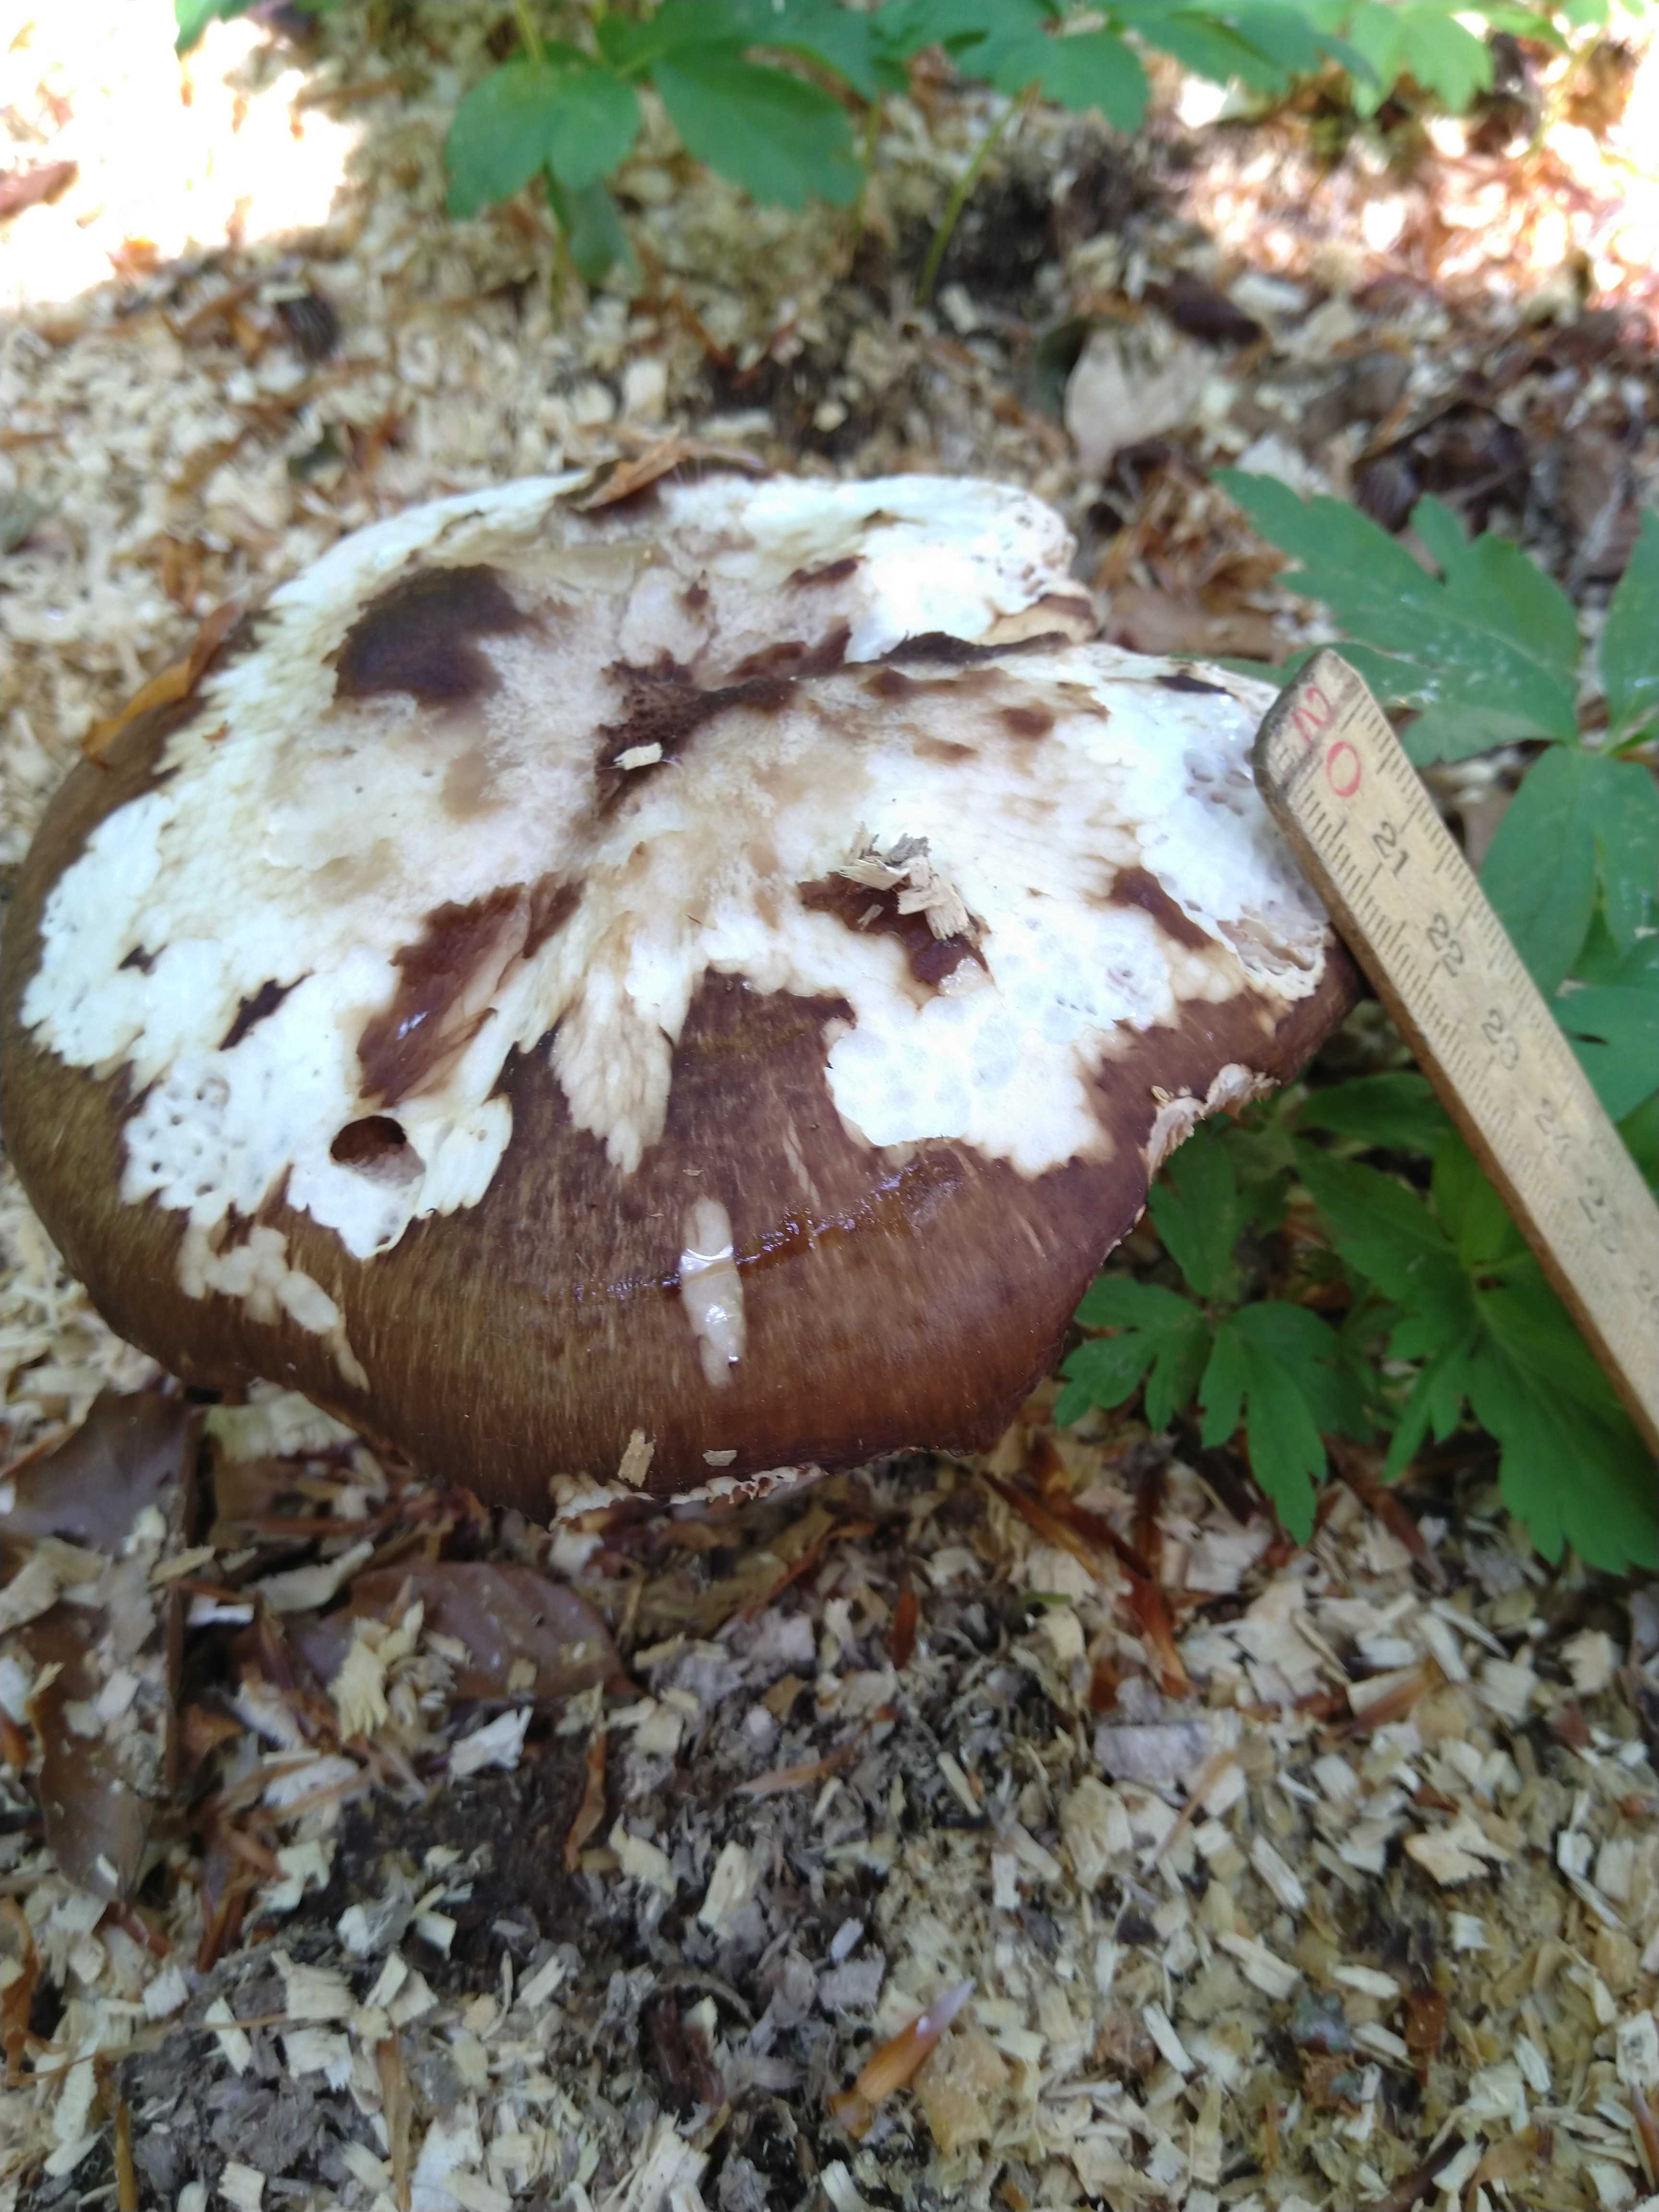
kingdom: Fungi
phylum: Basidiomycota
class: Agaricomycetes
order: Agaricales
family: Pluteaceae
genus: Pluteus
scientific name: Pluteus cervinus
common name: sodfarvet skærmhat
